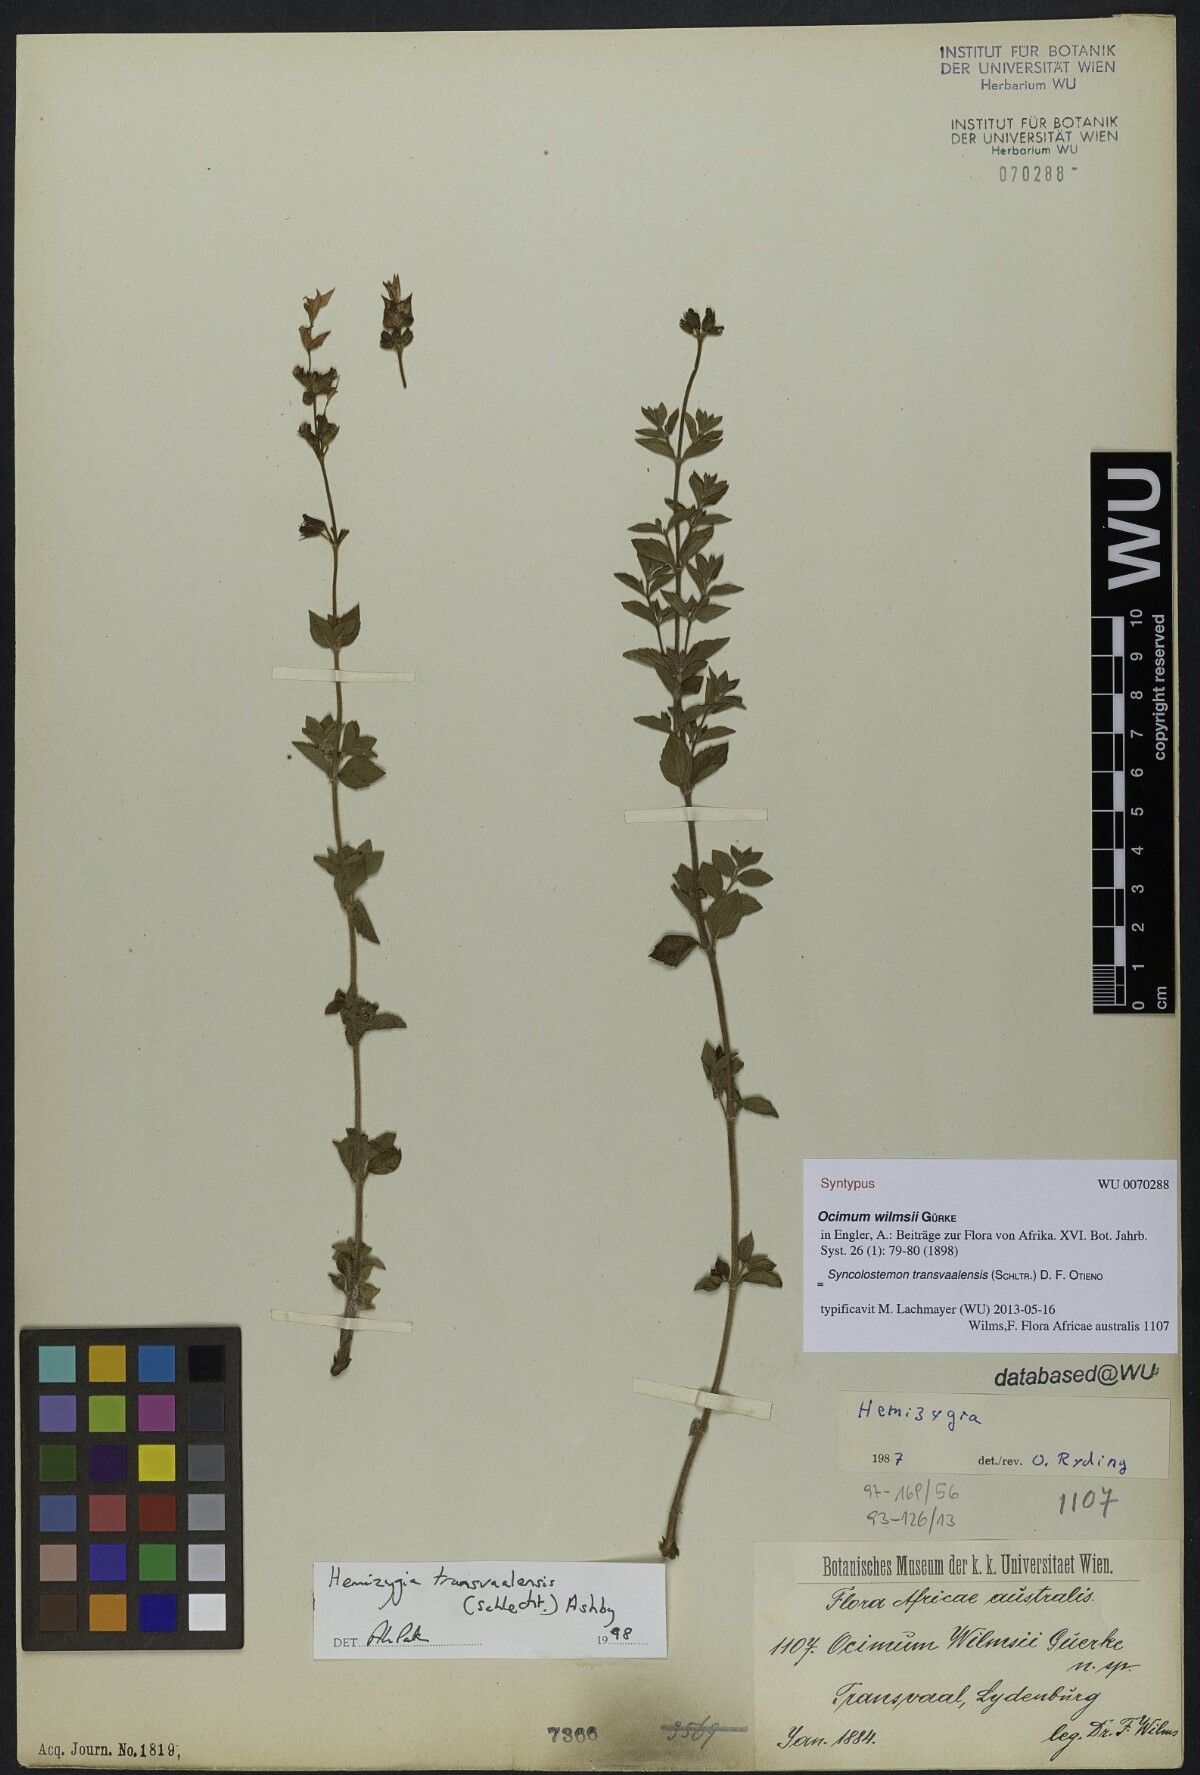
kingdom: Plantae
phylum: Tracheophyta
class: Magnoliopsida
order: Lamiales
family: Lamiaceae
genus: Syncolostemon
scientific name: Syncolostemon transvaalensis
